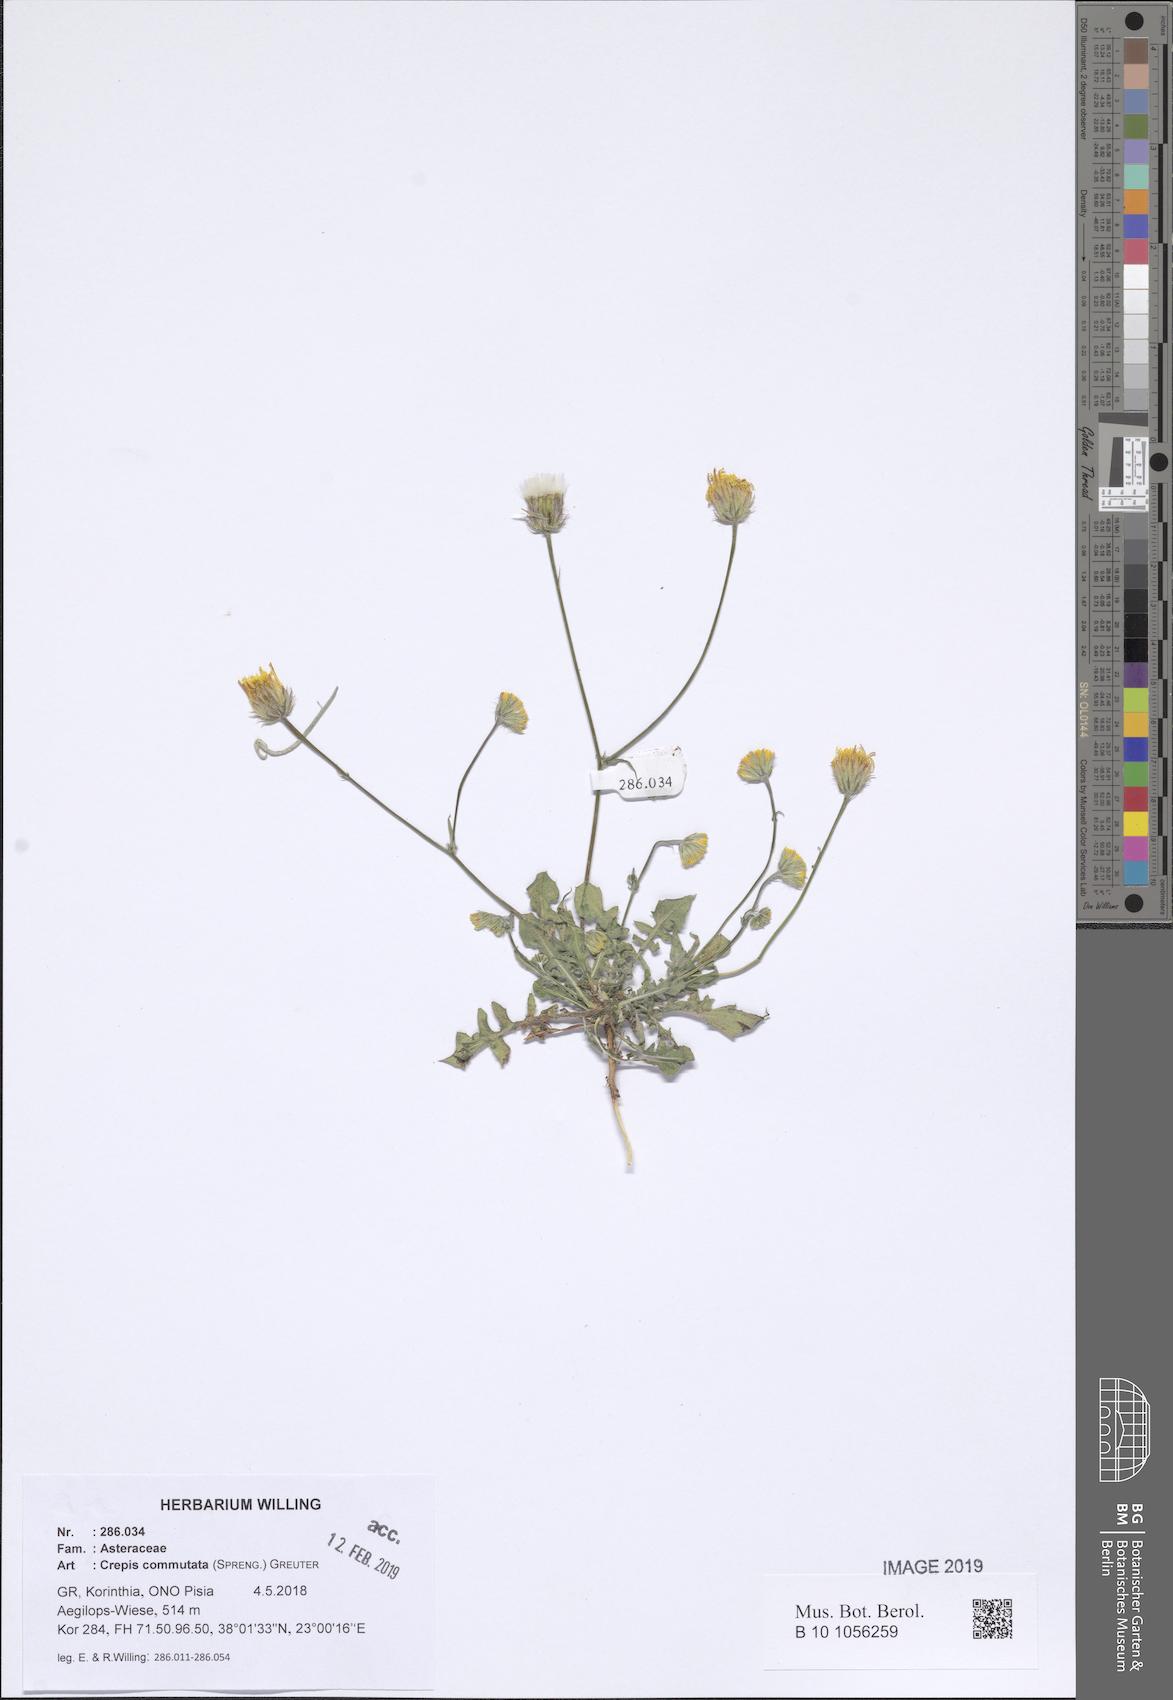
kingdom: Plantae
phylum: Tracheophyta
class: Magnoliopsida
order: Asterales
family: Asteraceae
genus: Crepis
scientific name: Crepis commutata
